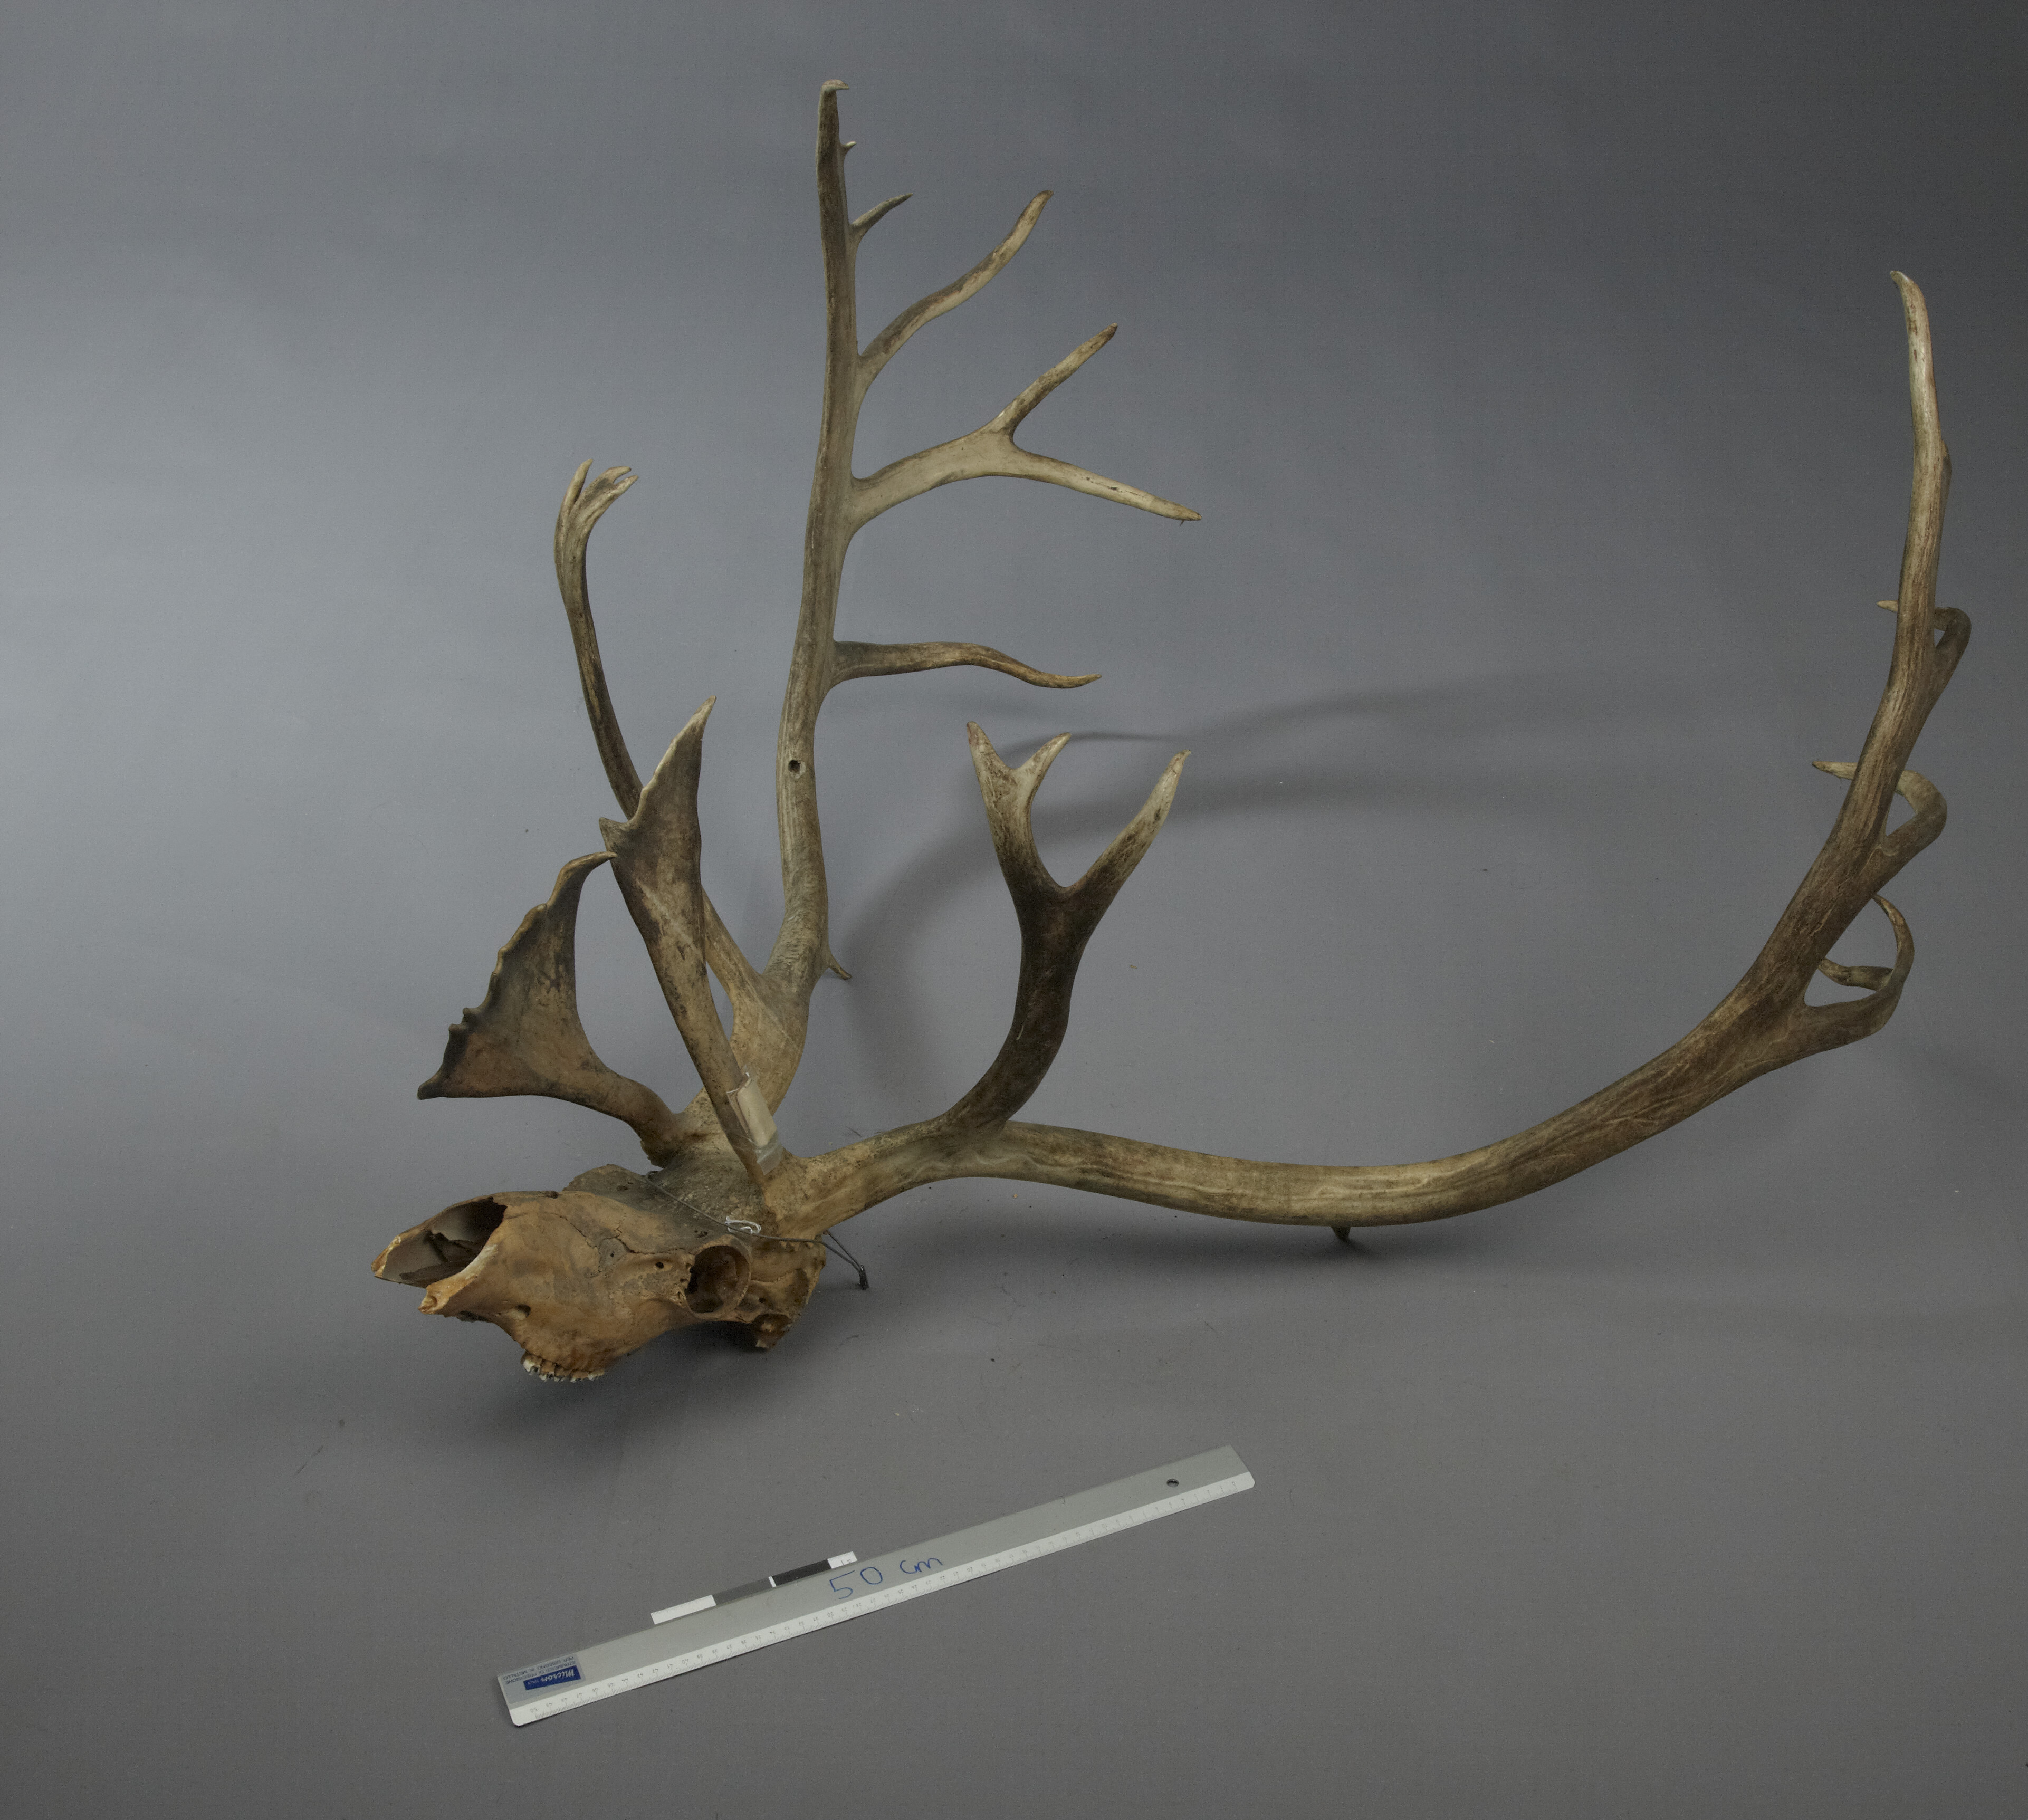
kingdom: Animalia
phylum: Chordata
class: Mammalia
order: Artiodactyla
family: Cervidae
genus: Rangifer
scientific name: Rangifer tarandus
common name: Reindeer
